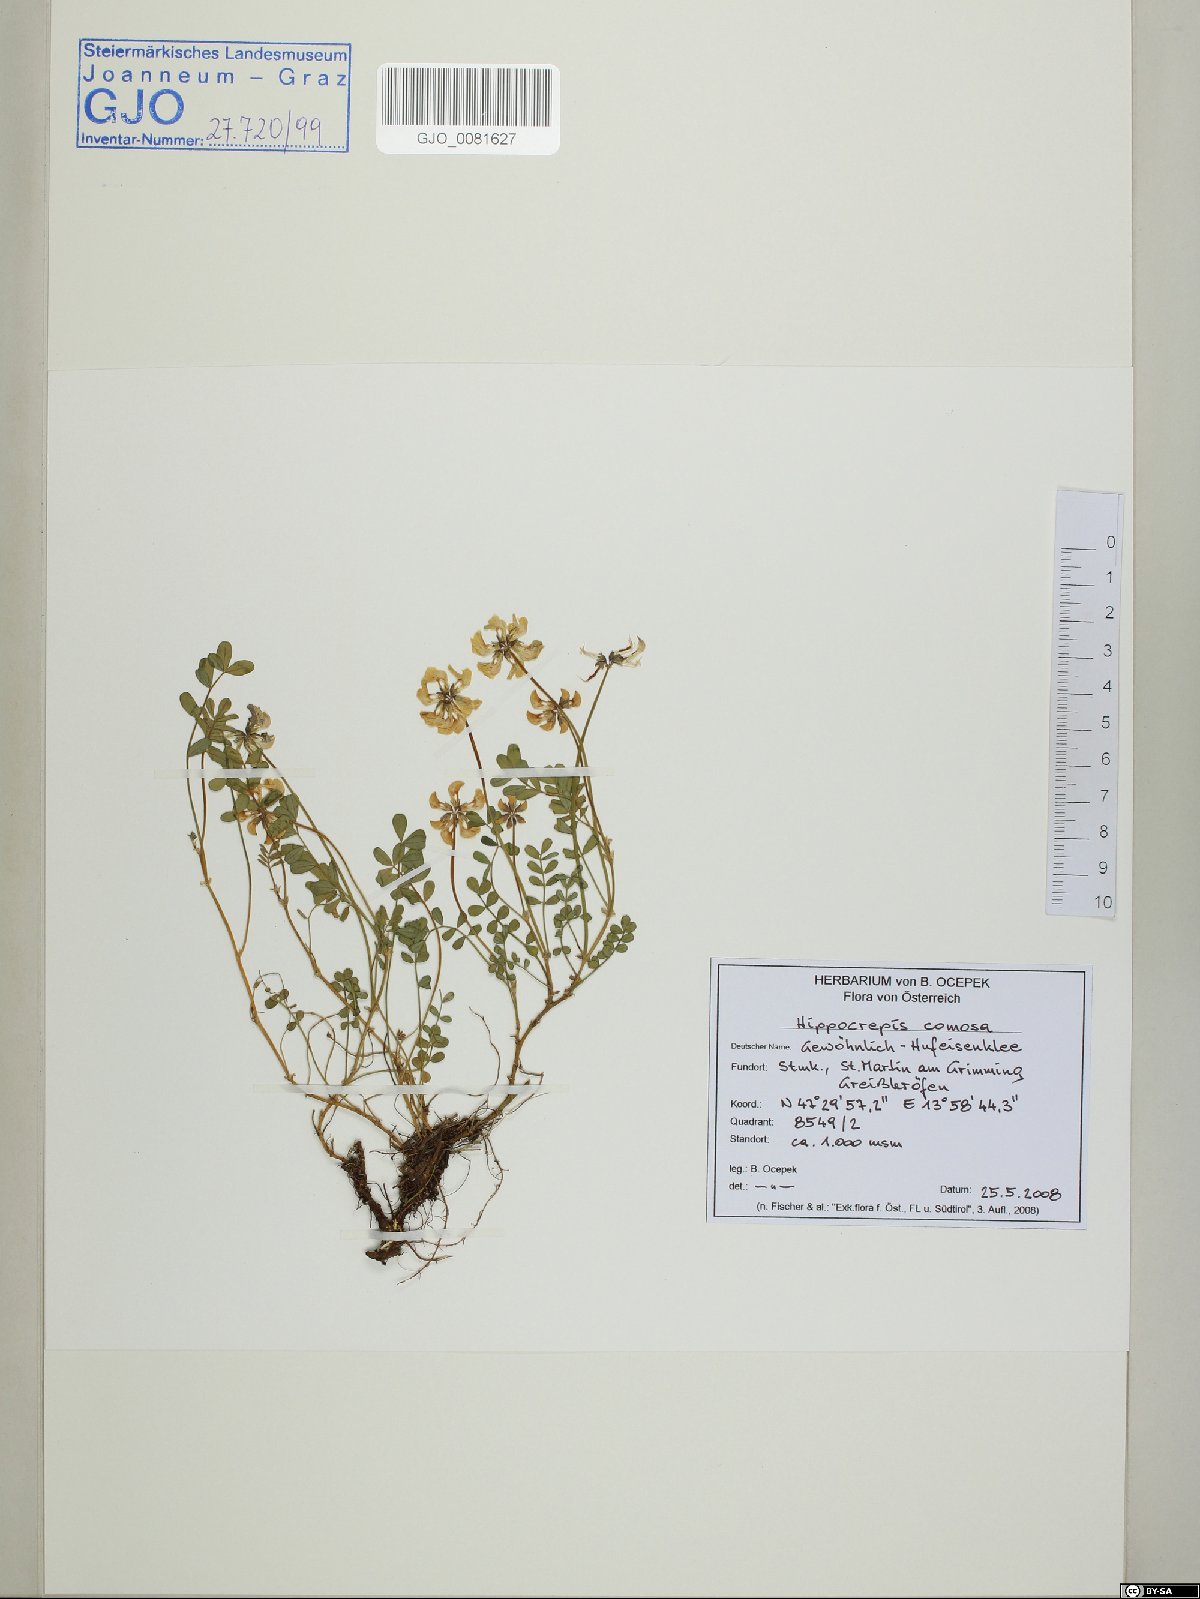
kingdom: Plantae
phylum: Tracheophyta
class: Magnoliopsida
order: Fabales
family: Fabaceae
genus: Hippocrepis
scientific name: Hippocrepis comosa
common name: Horseshoe vetch
